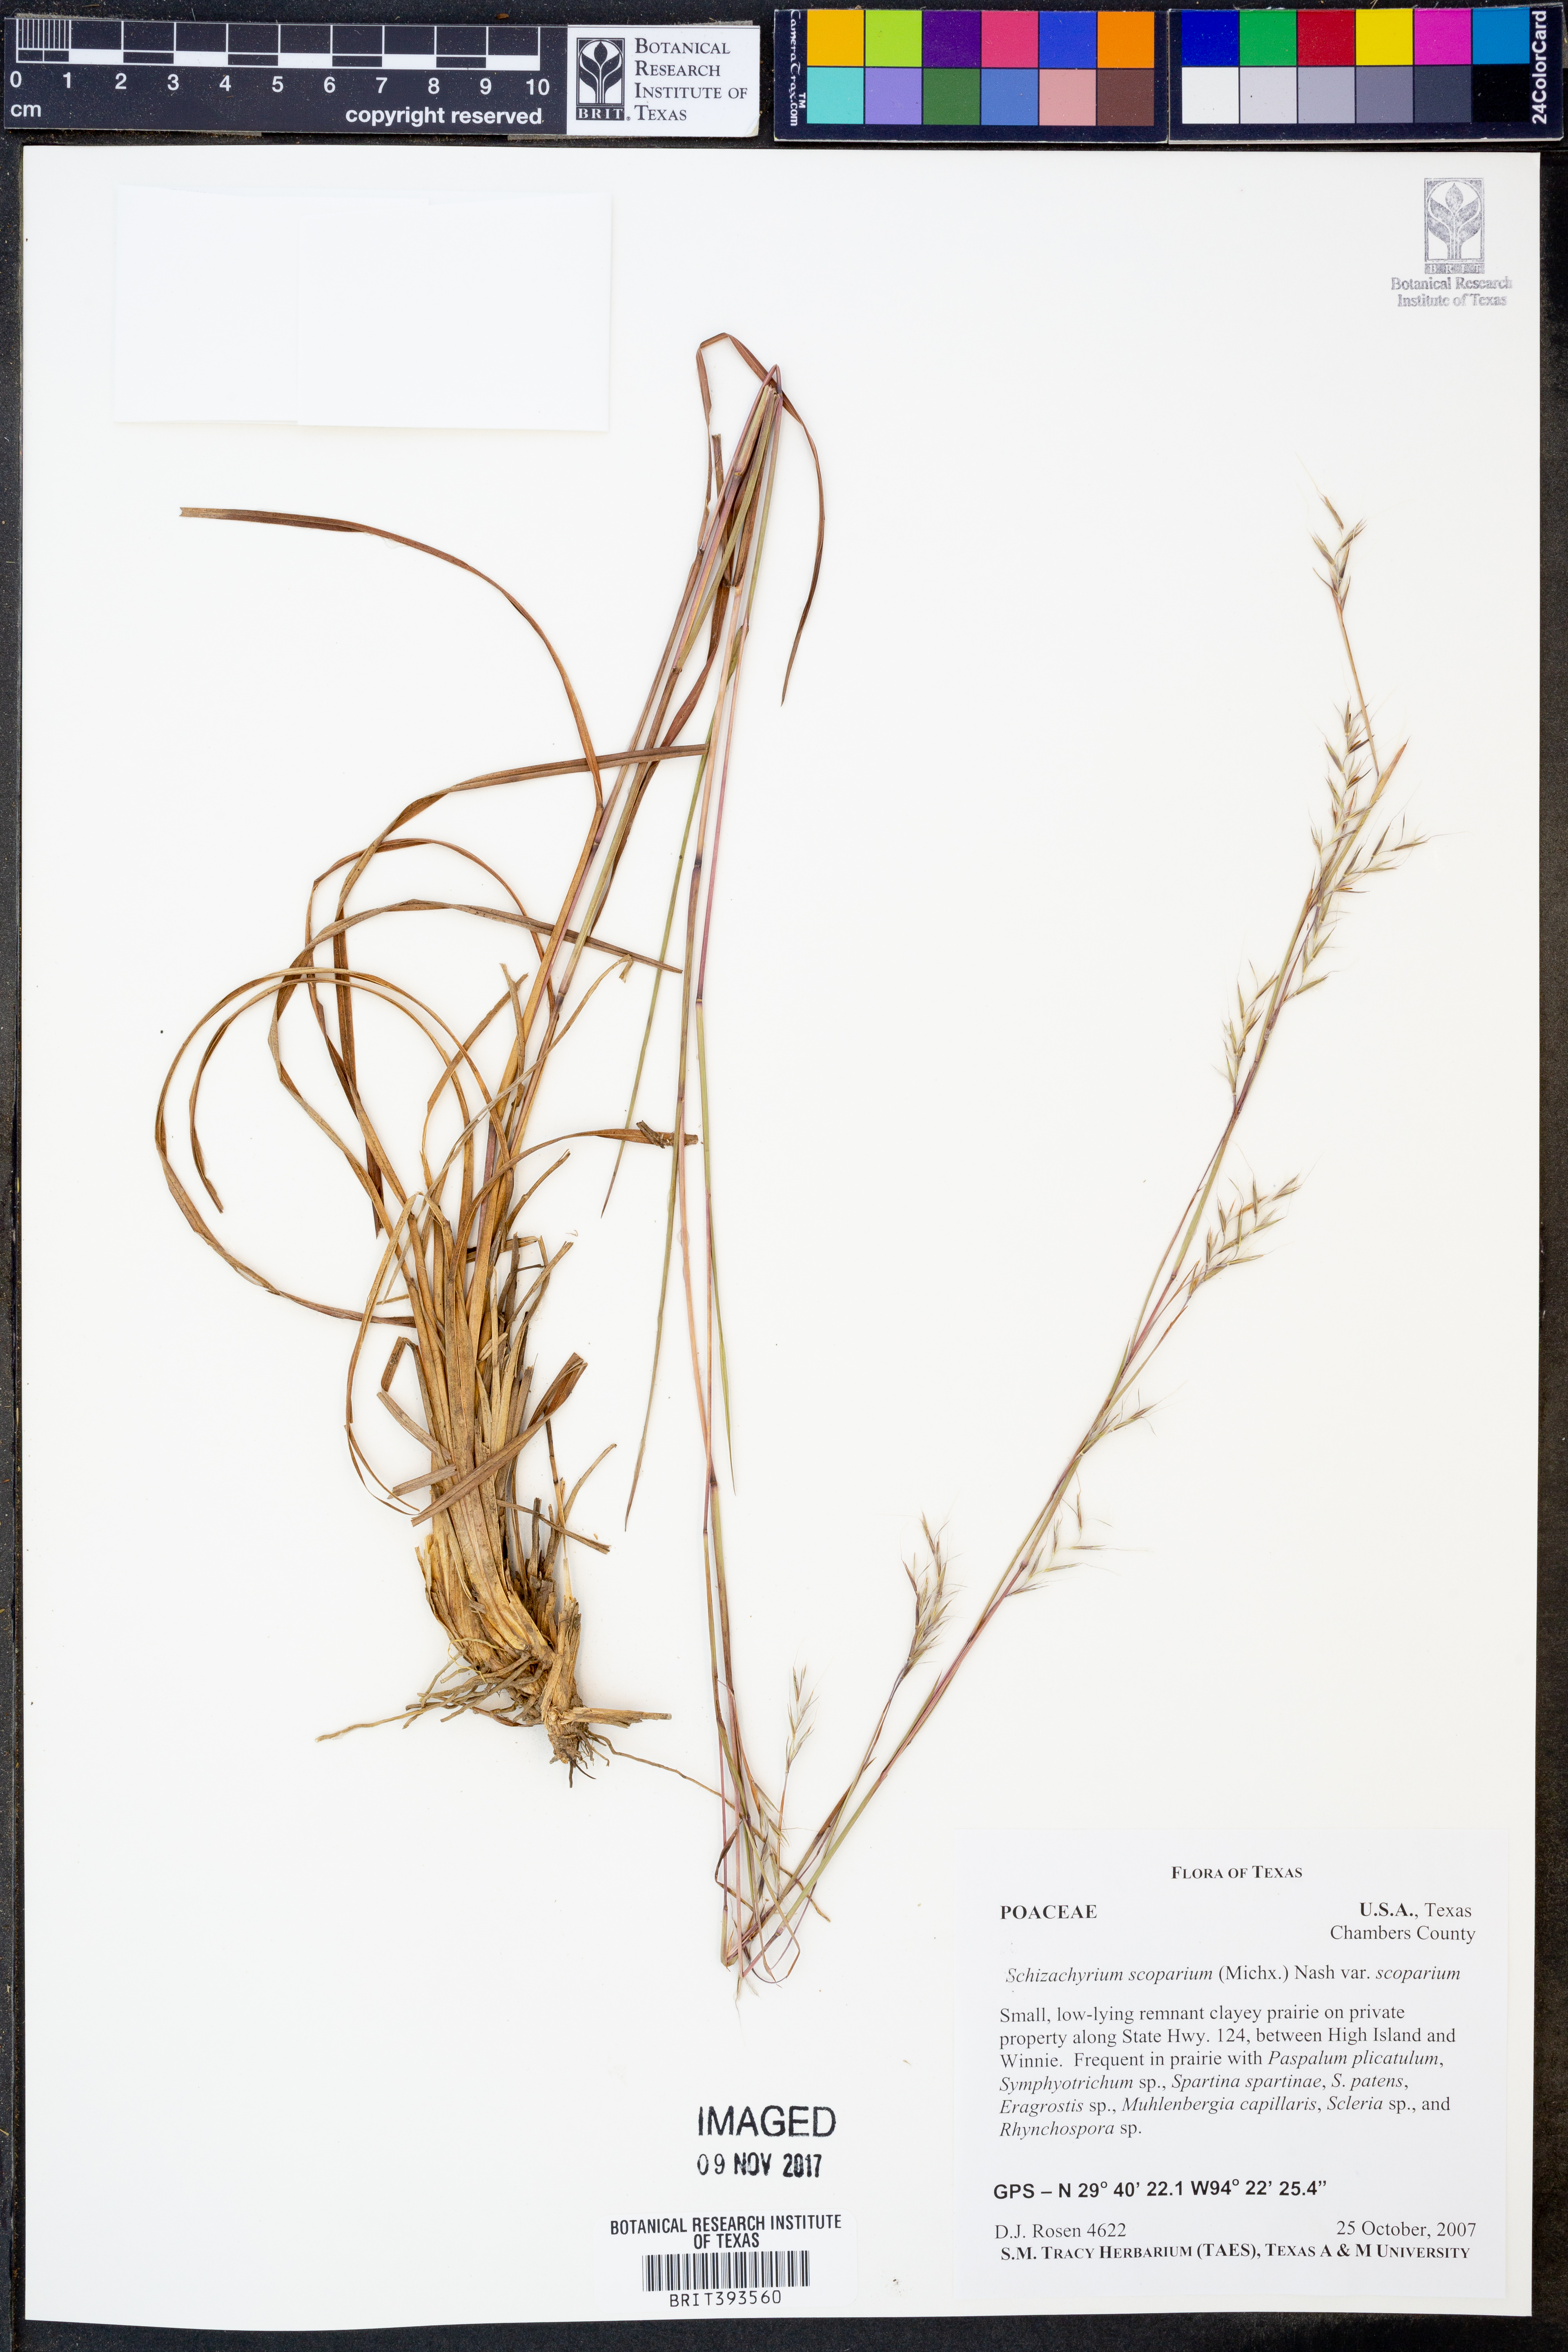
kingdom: Plantae
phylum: Tracheophyta
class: Liliopsida
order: Poales
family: Poaceae
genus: Schizachyrium
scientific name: Schizachyrium scoparium
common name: Little bluestem
